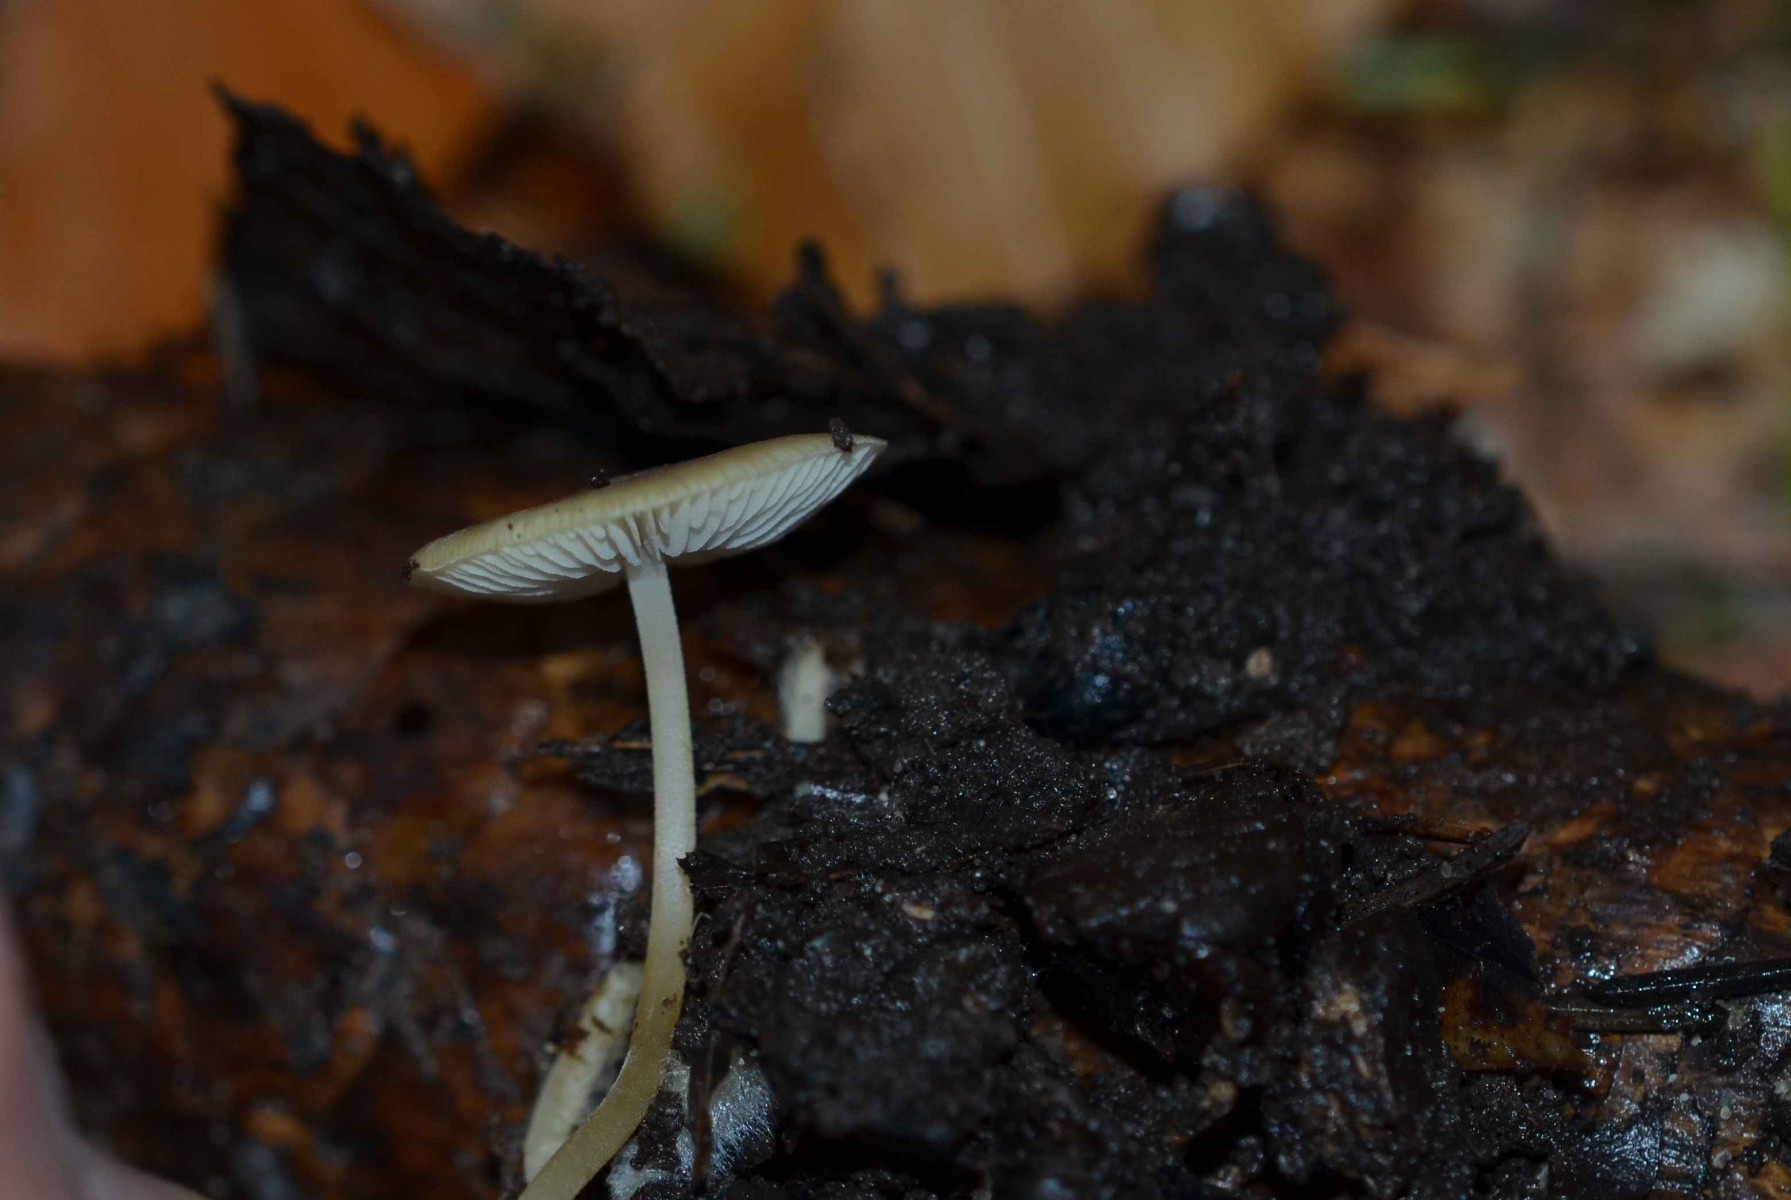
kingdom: Fungi
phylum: Basidiomycota
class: Agaricomycetes
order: Agaricales
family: Physalacriaceae
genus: Strobilurus
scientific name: Strobilurus esculentus
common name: gran-koglehat
